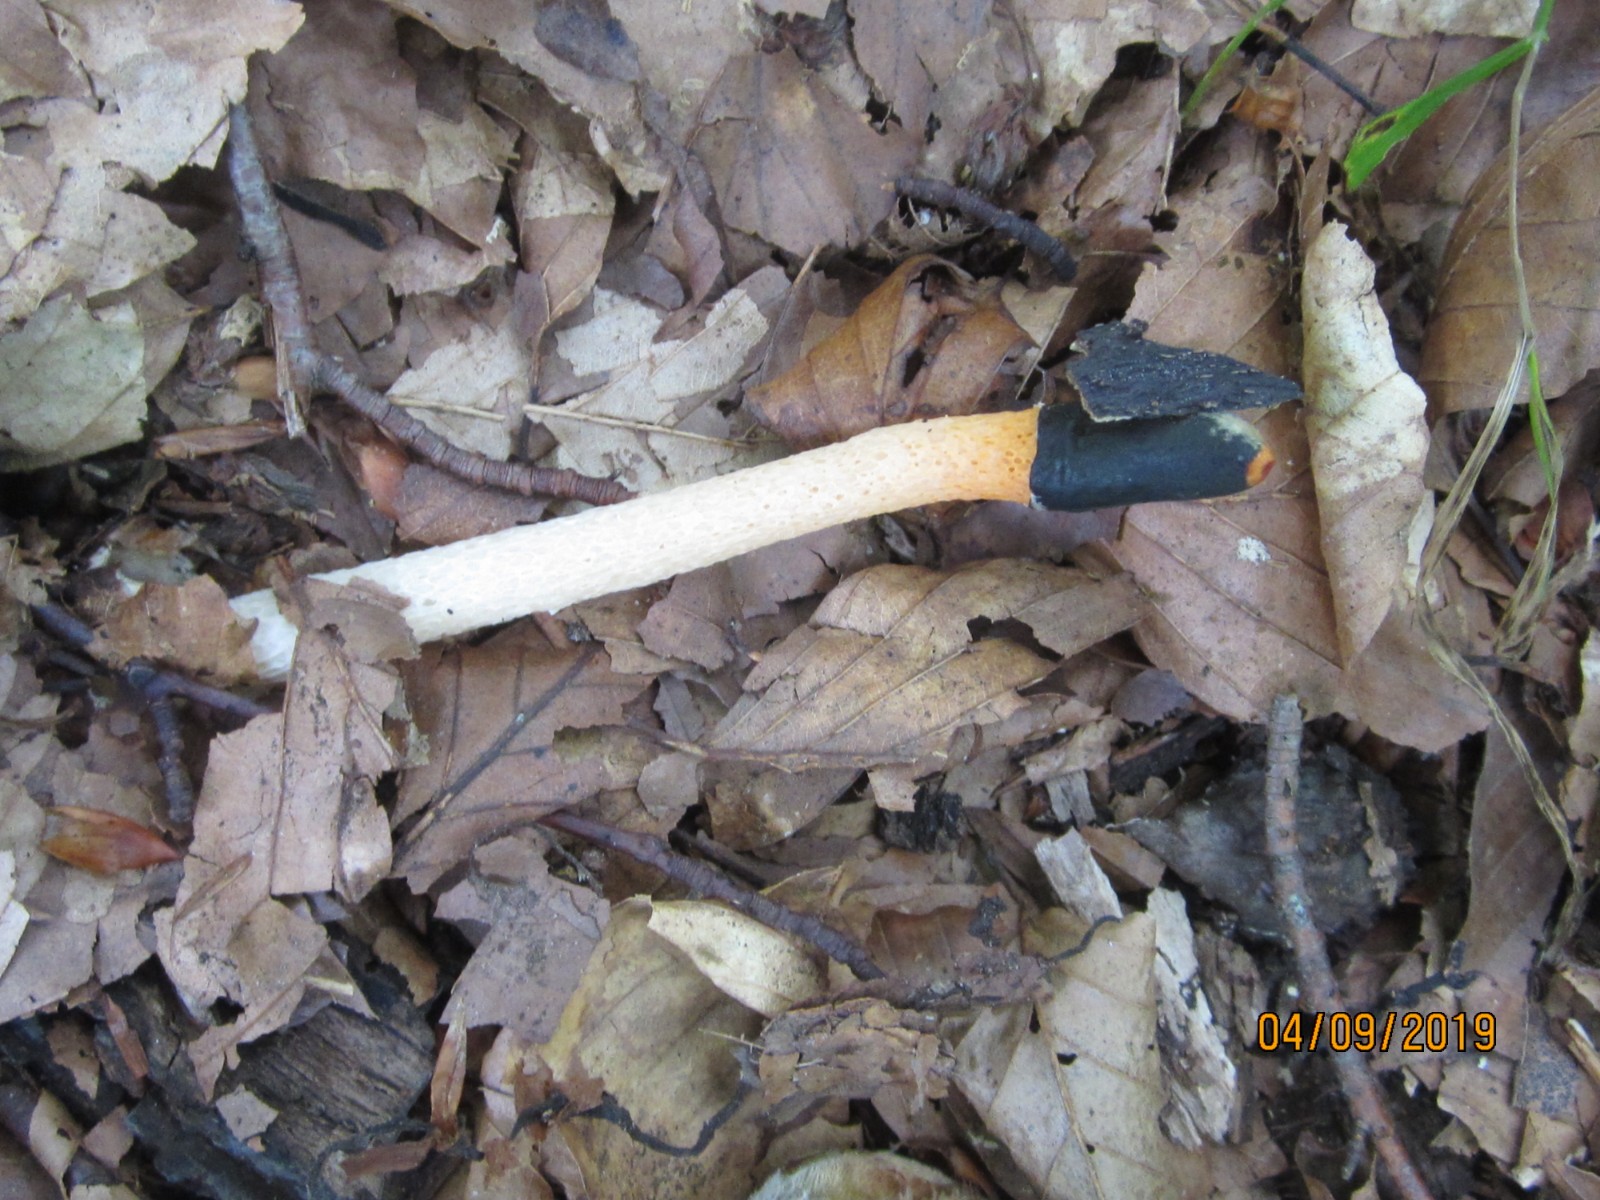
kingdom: Fungi
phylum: Basidiomycota
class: Agaricomycetes
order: Phallales
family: Phallaceae
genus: Mutinus
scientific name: Mutinus caninus
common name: hunde-stinksvamp
